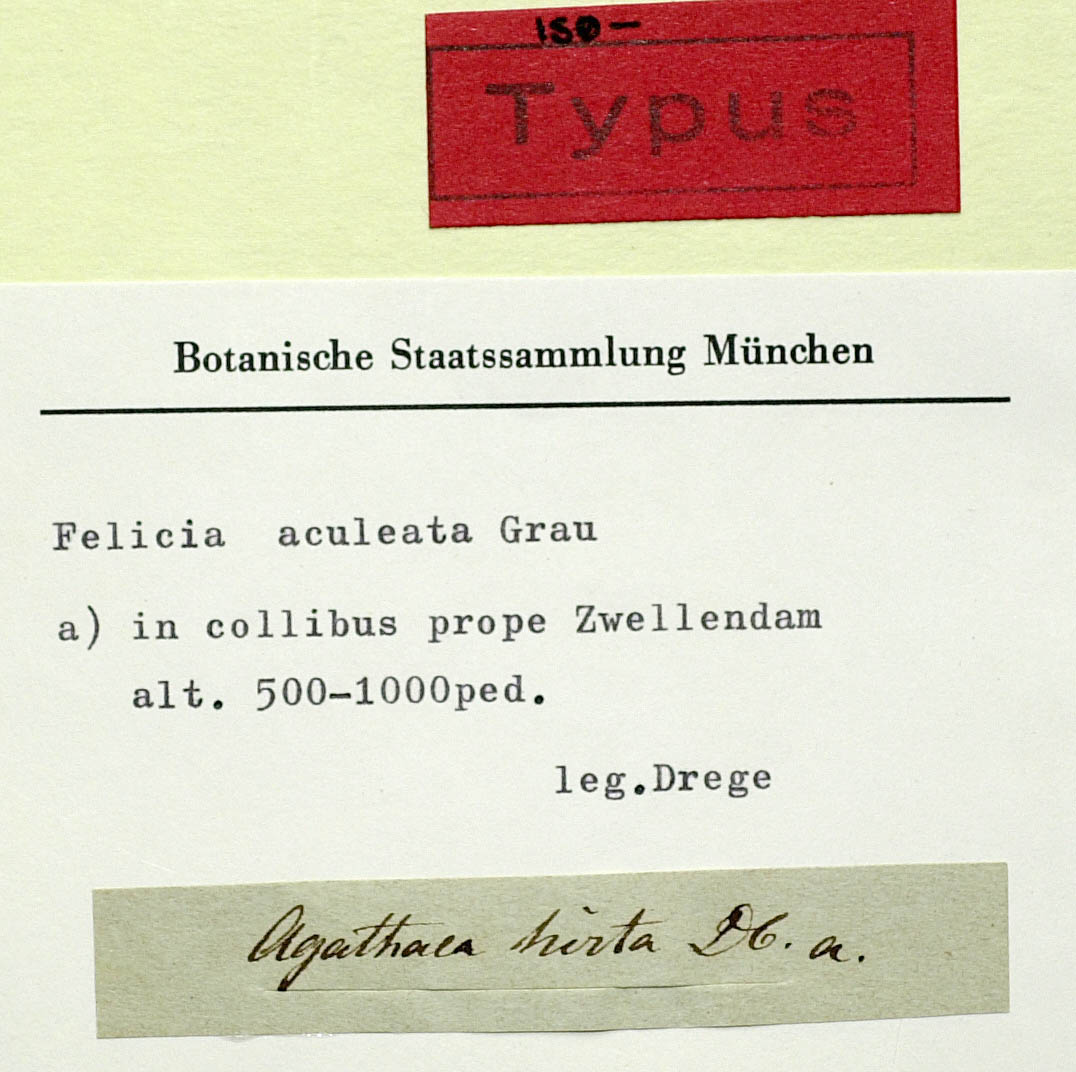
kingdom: Plantae
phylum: Tracheophyta
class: Magnoliopsida
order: Asterales
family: Asteraceae
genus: Felicia
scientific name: Felicia aculeata
